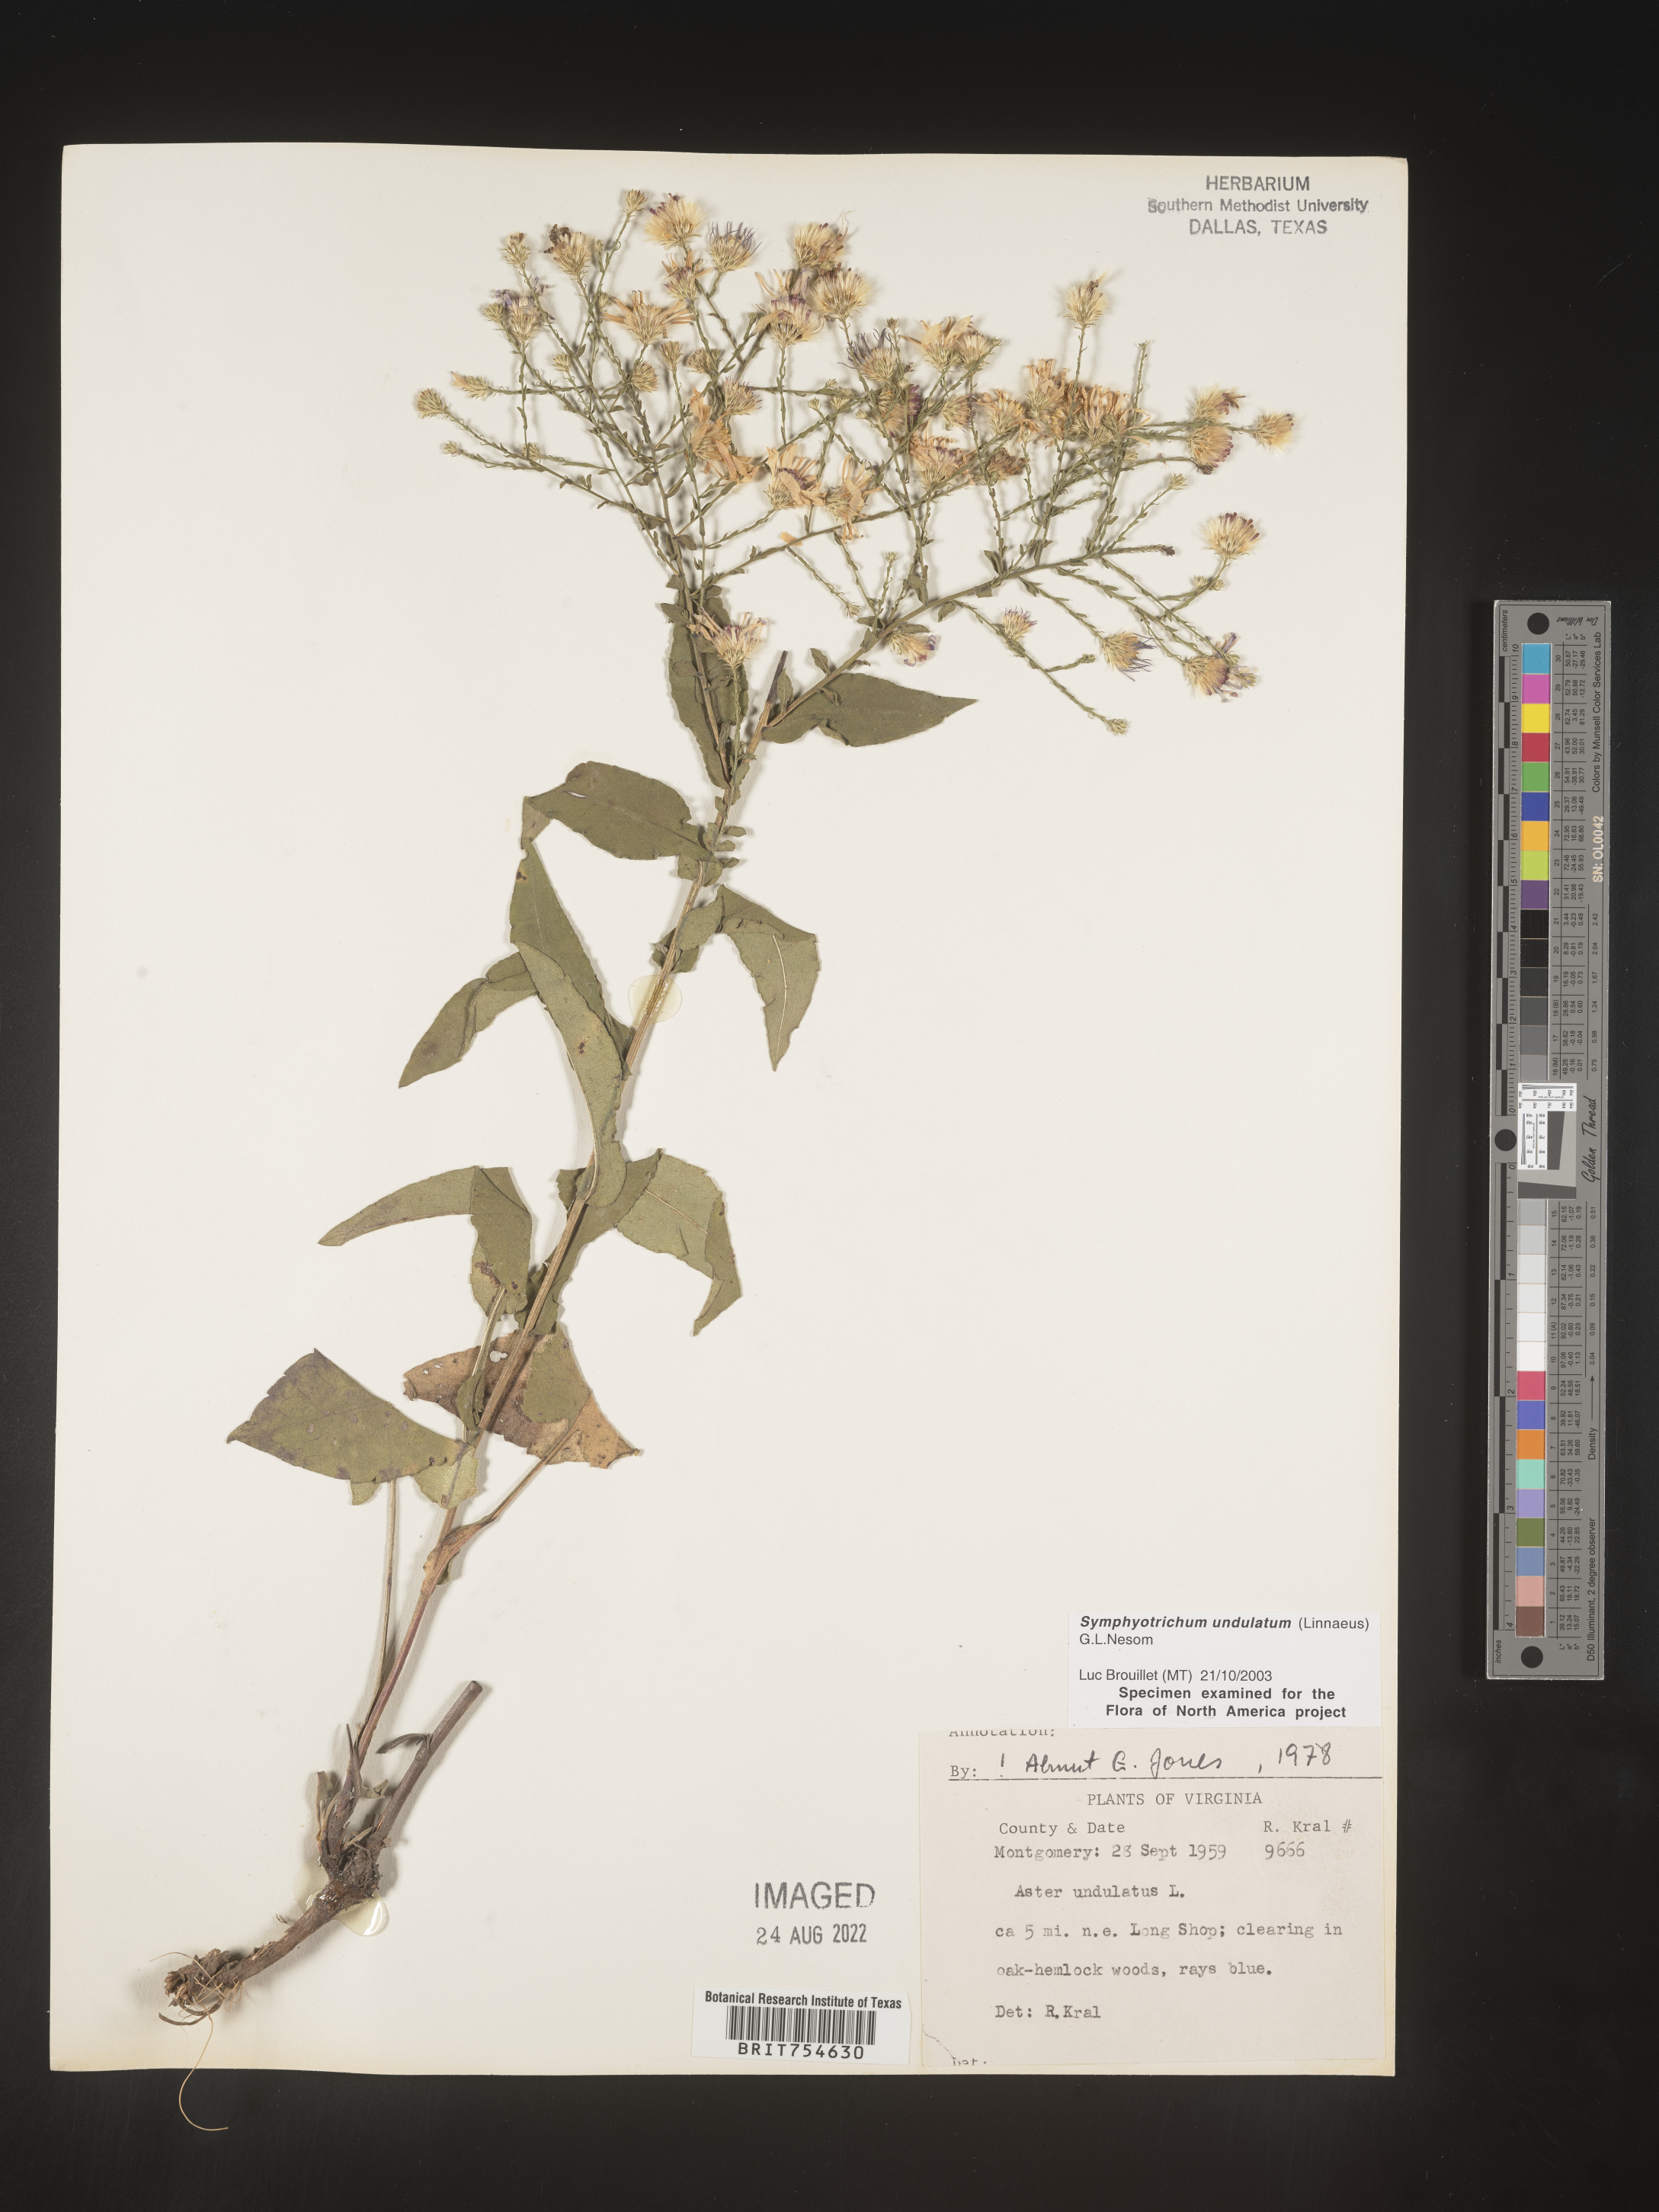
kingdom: Plantae
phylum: Tracheophyta
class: Magnoliopsida
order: Asterales
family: Asteraceae
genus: Symphyotrichum
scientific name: Symphyotrichum undulatum
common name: Clasping heart-leaf aster
